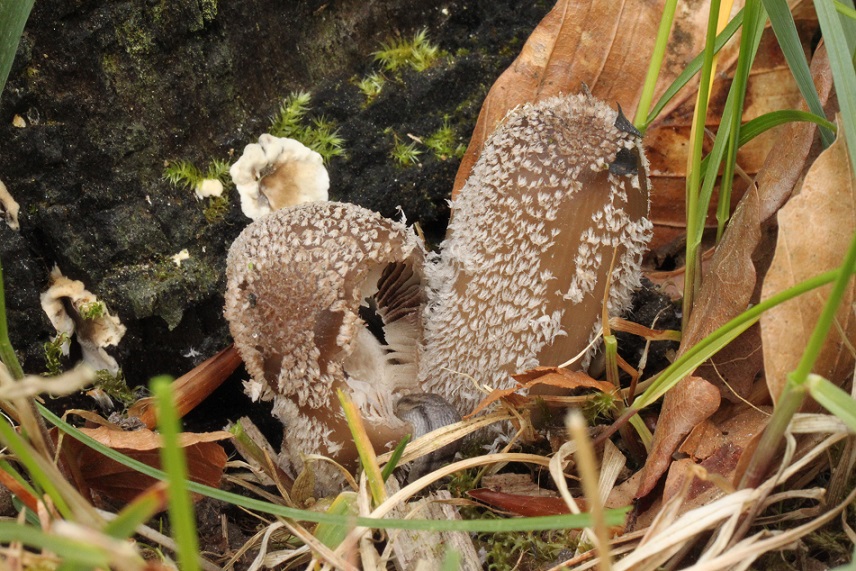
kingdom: Fungi
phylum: Basidiomycota
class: Agaricomycetes
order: Agaricales
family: Psathyrellaceae
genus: Coprinopsis
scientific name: Coprinopsis jonesii
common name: spættet blækhat
